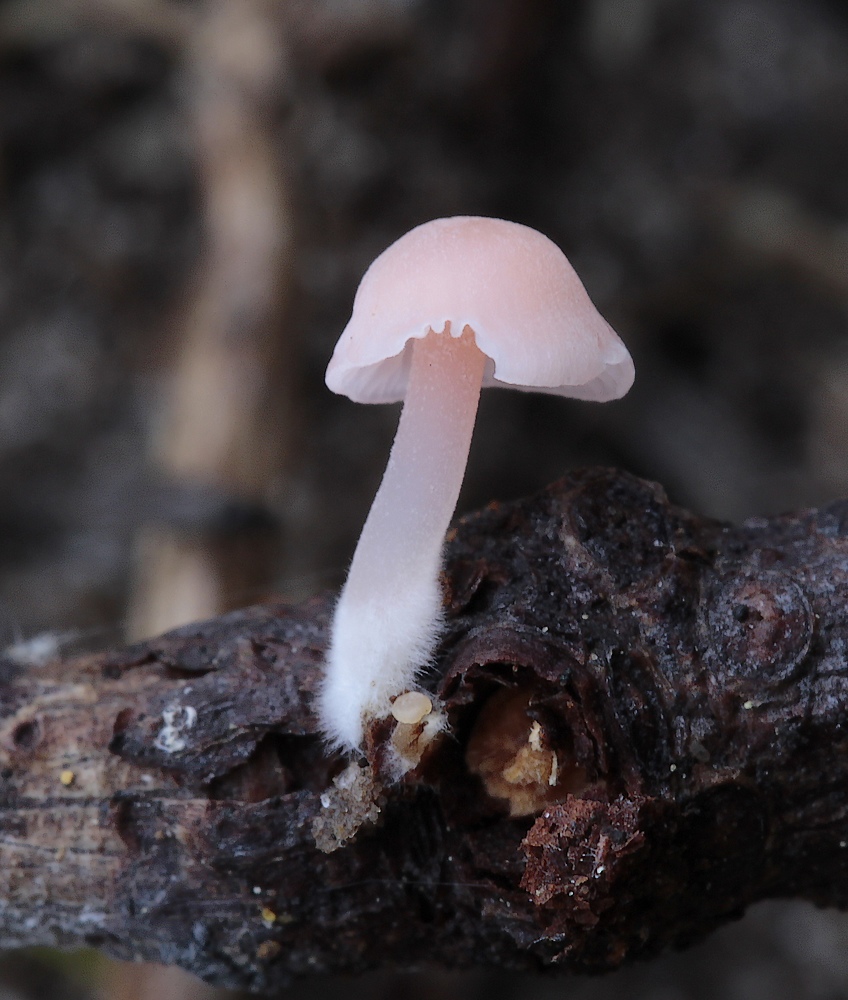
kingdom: Fungi
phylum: Basidiomycota
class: Agaricomycetes
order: Agaricales
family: Mycenaceae
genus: Mycena
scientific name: Mycena coccinea
